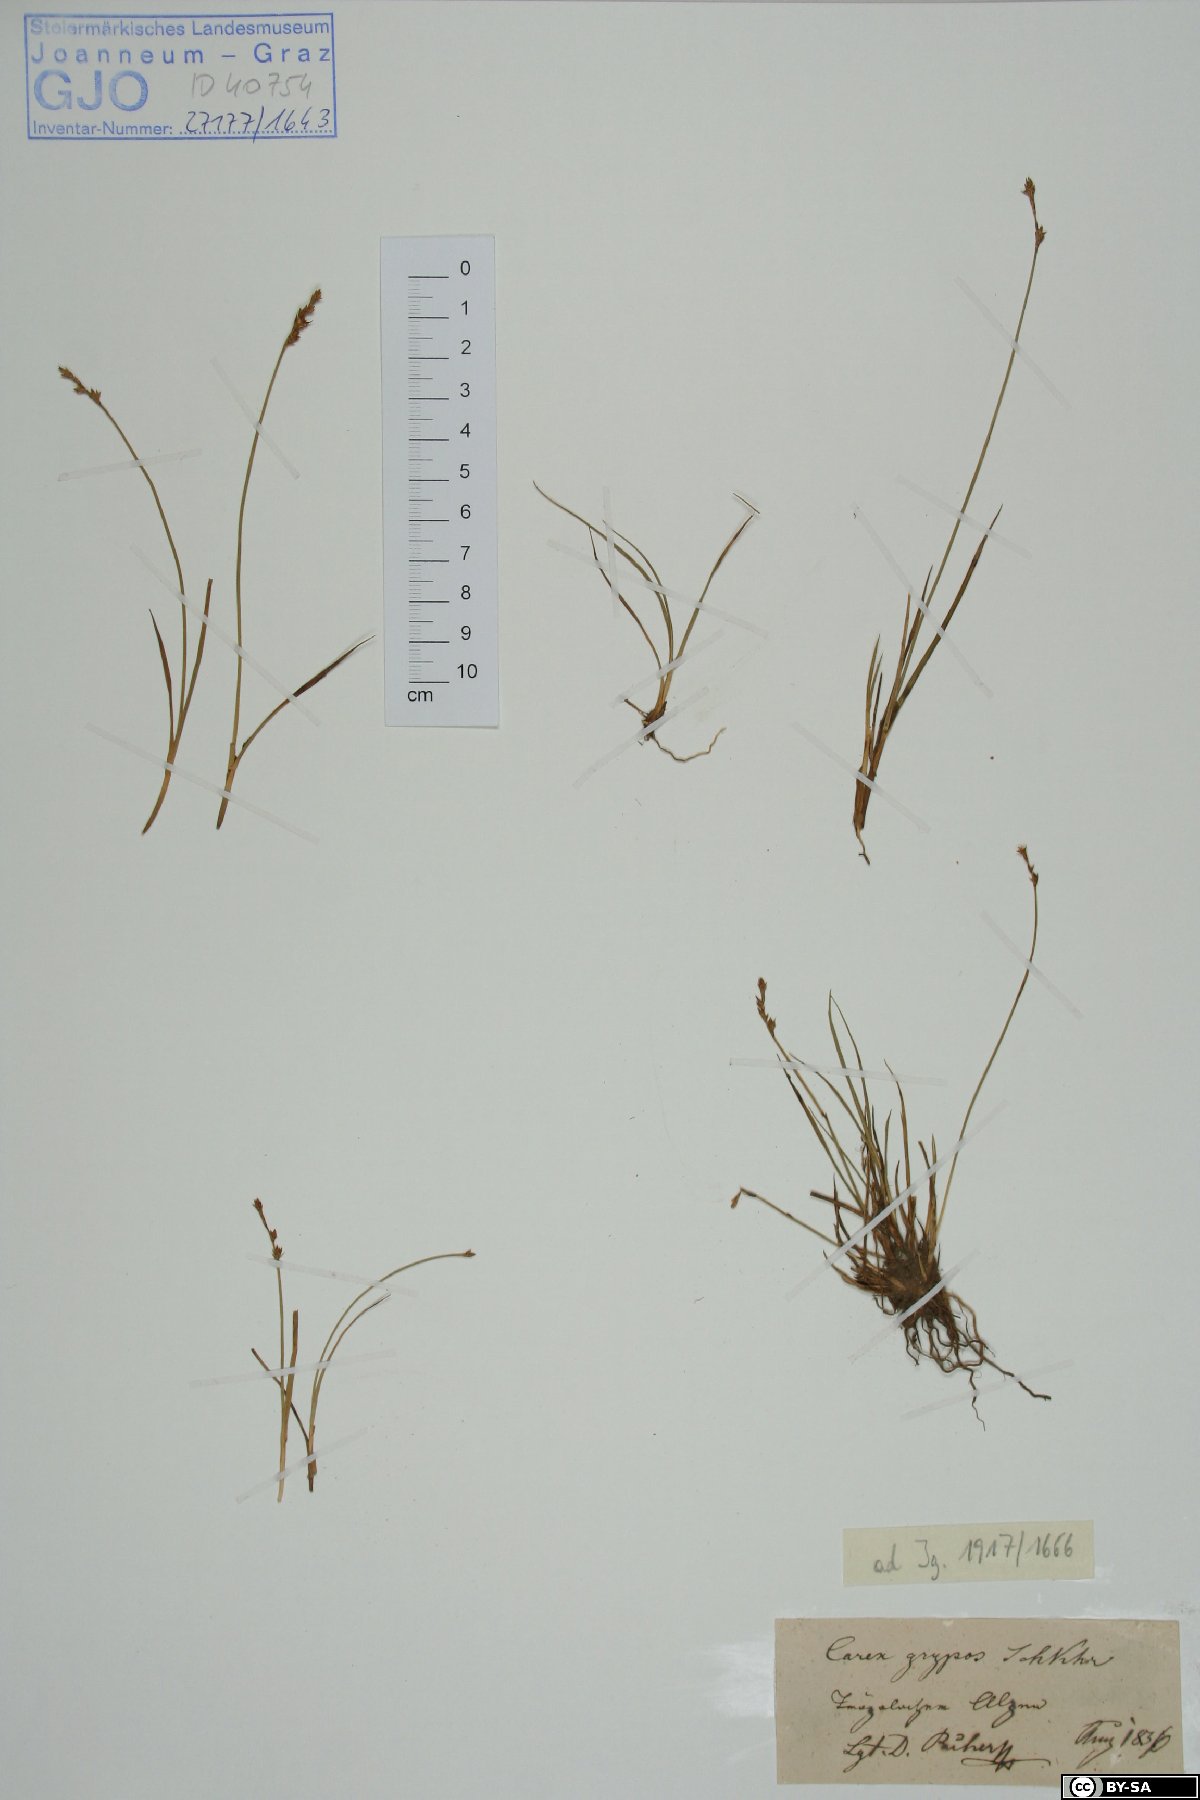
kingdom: Plantae
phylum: Tracheophyta
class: Liliopsida
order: Poales
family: Cyperaceae
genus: Carex
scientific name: Carex echinata
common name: Star sedge
